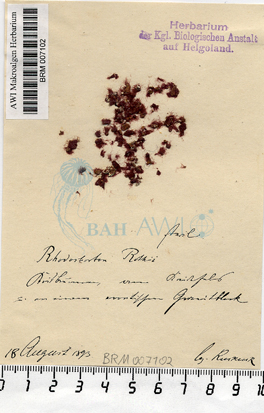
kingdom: Plantae
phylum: Rhodophyta
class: Florideophyceae
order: Acrochaetiales
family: Rhodochortonaceae
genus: Rhodochorton
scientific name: Rhodochorton purpureum
